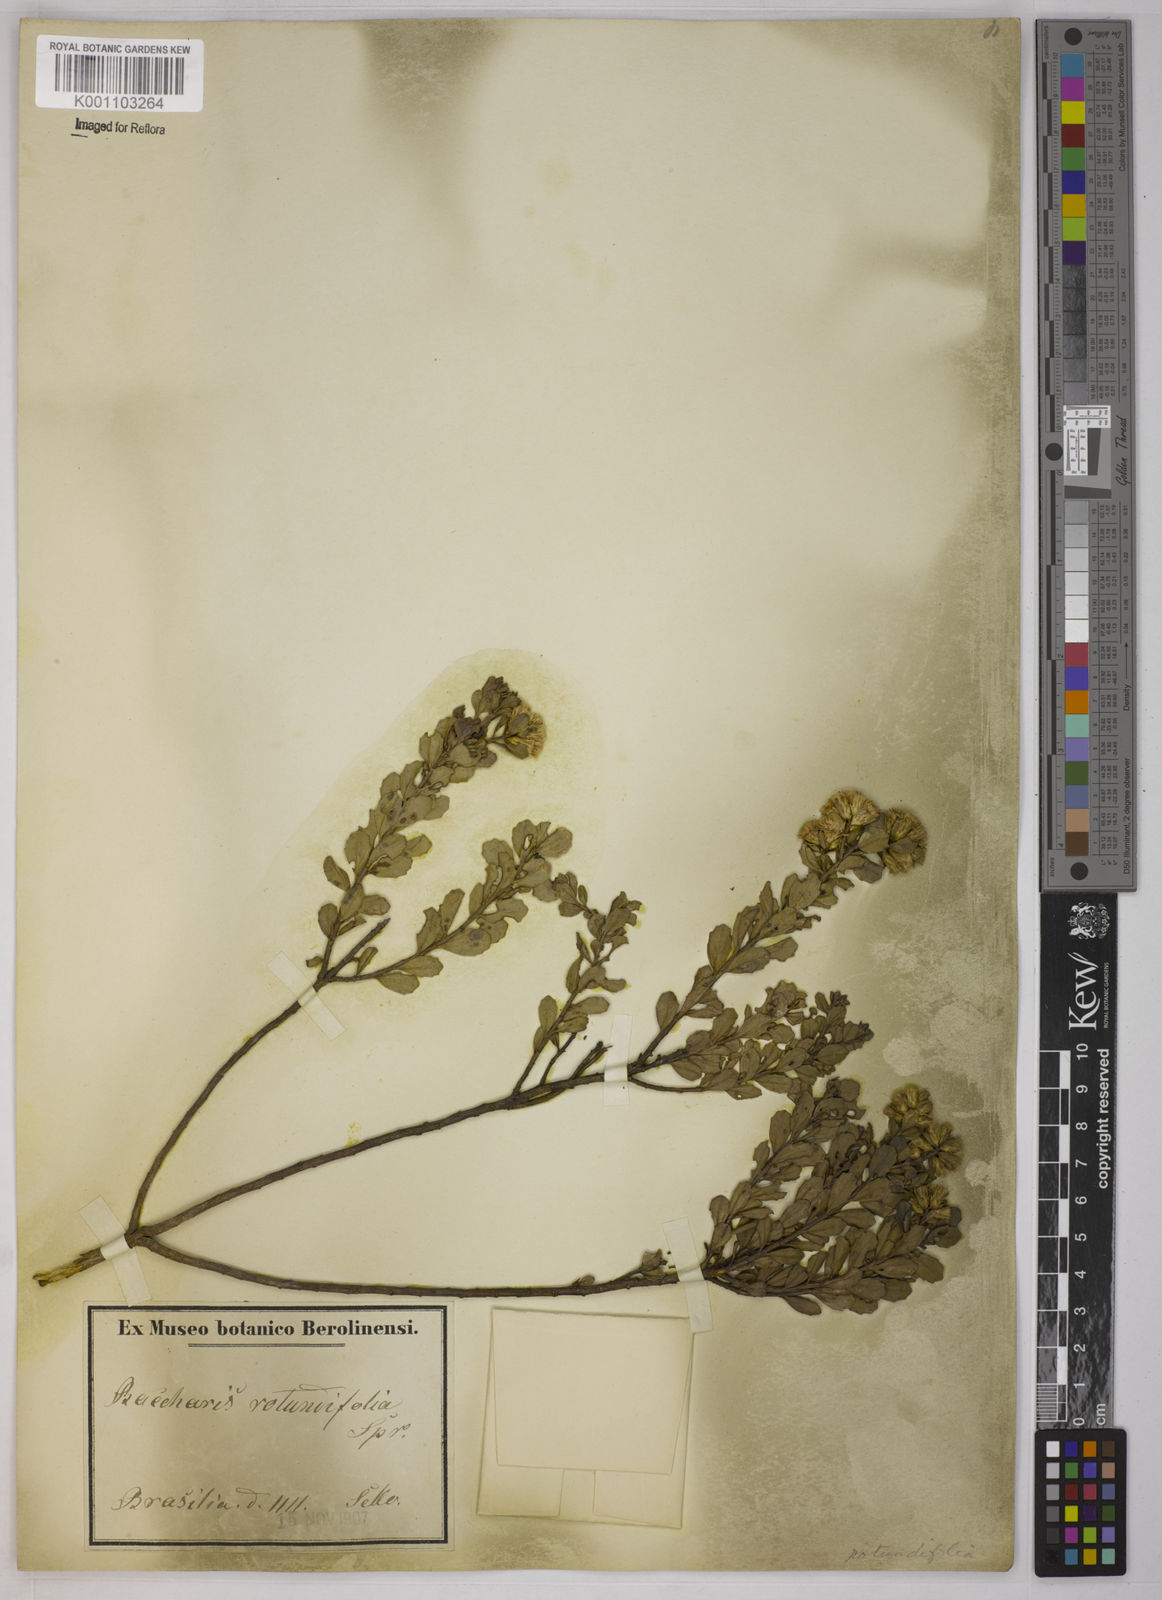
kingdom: Plantae
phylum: Tracheophyta
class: Magnoliopsida
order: Asterales
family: Asteraceae
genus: Baccharis
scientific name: Baccharis sessiliflora
